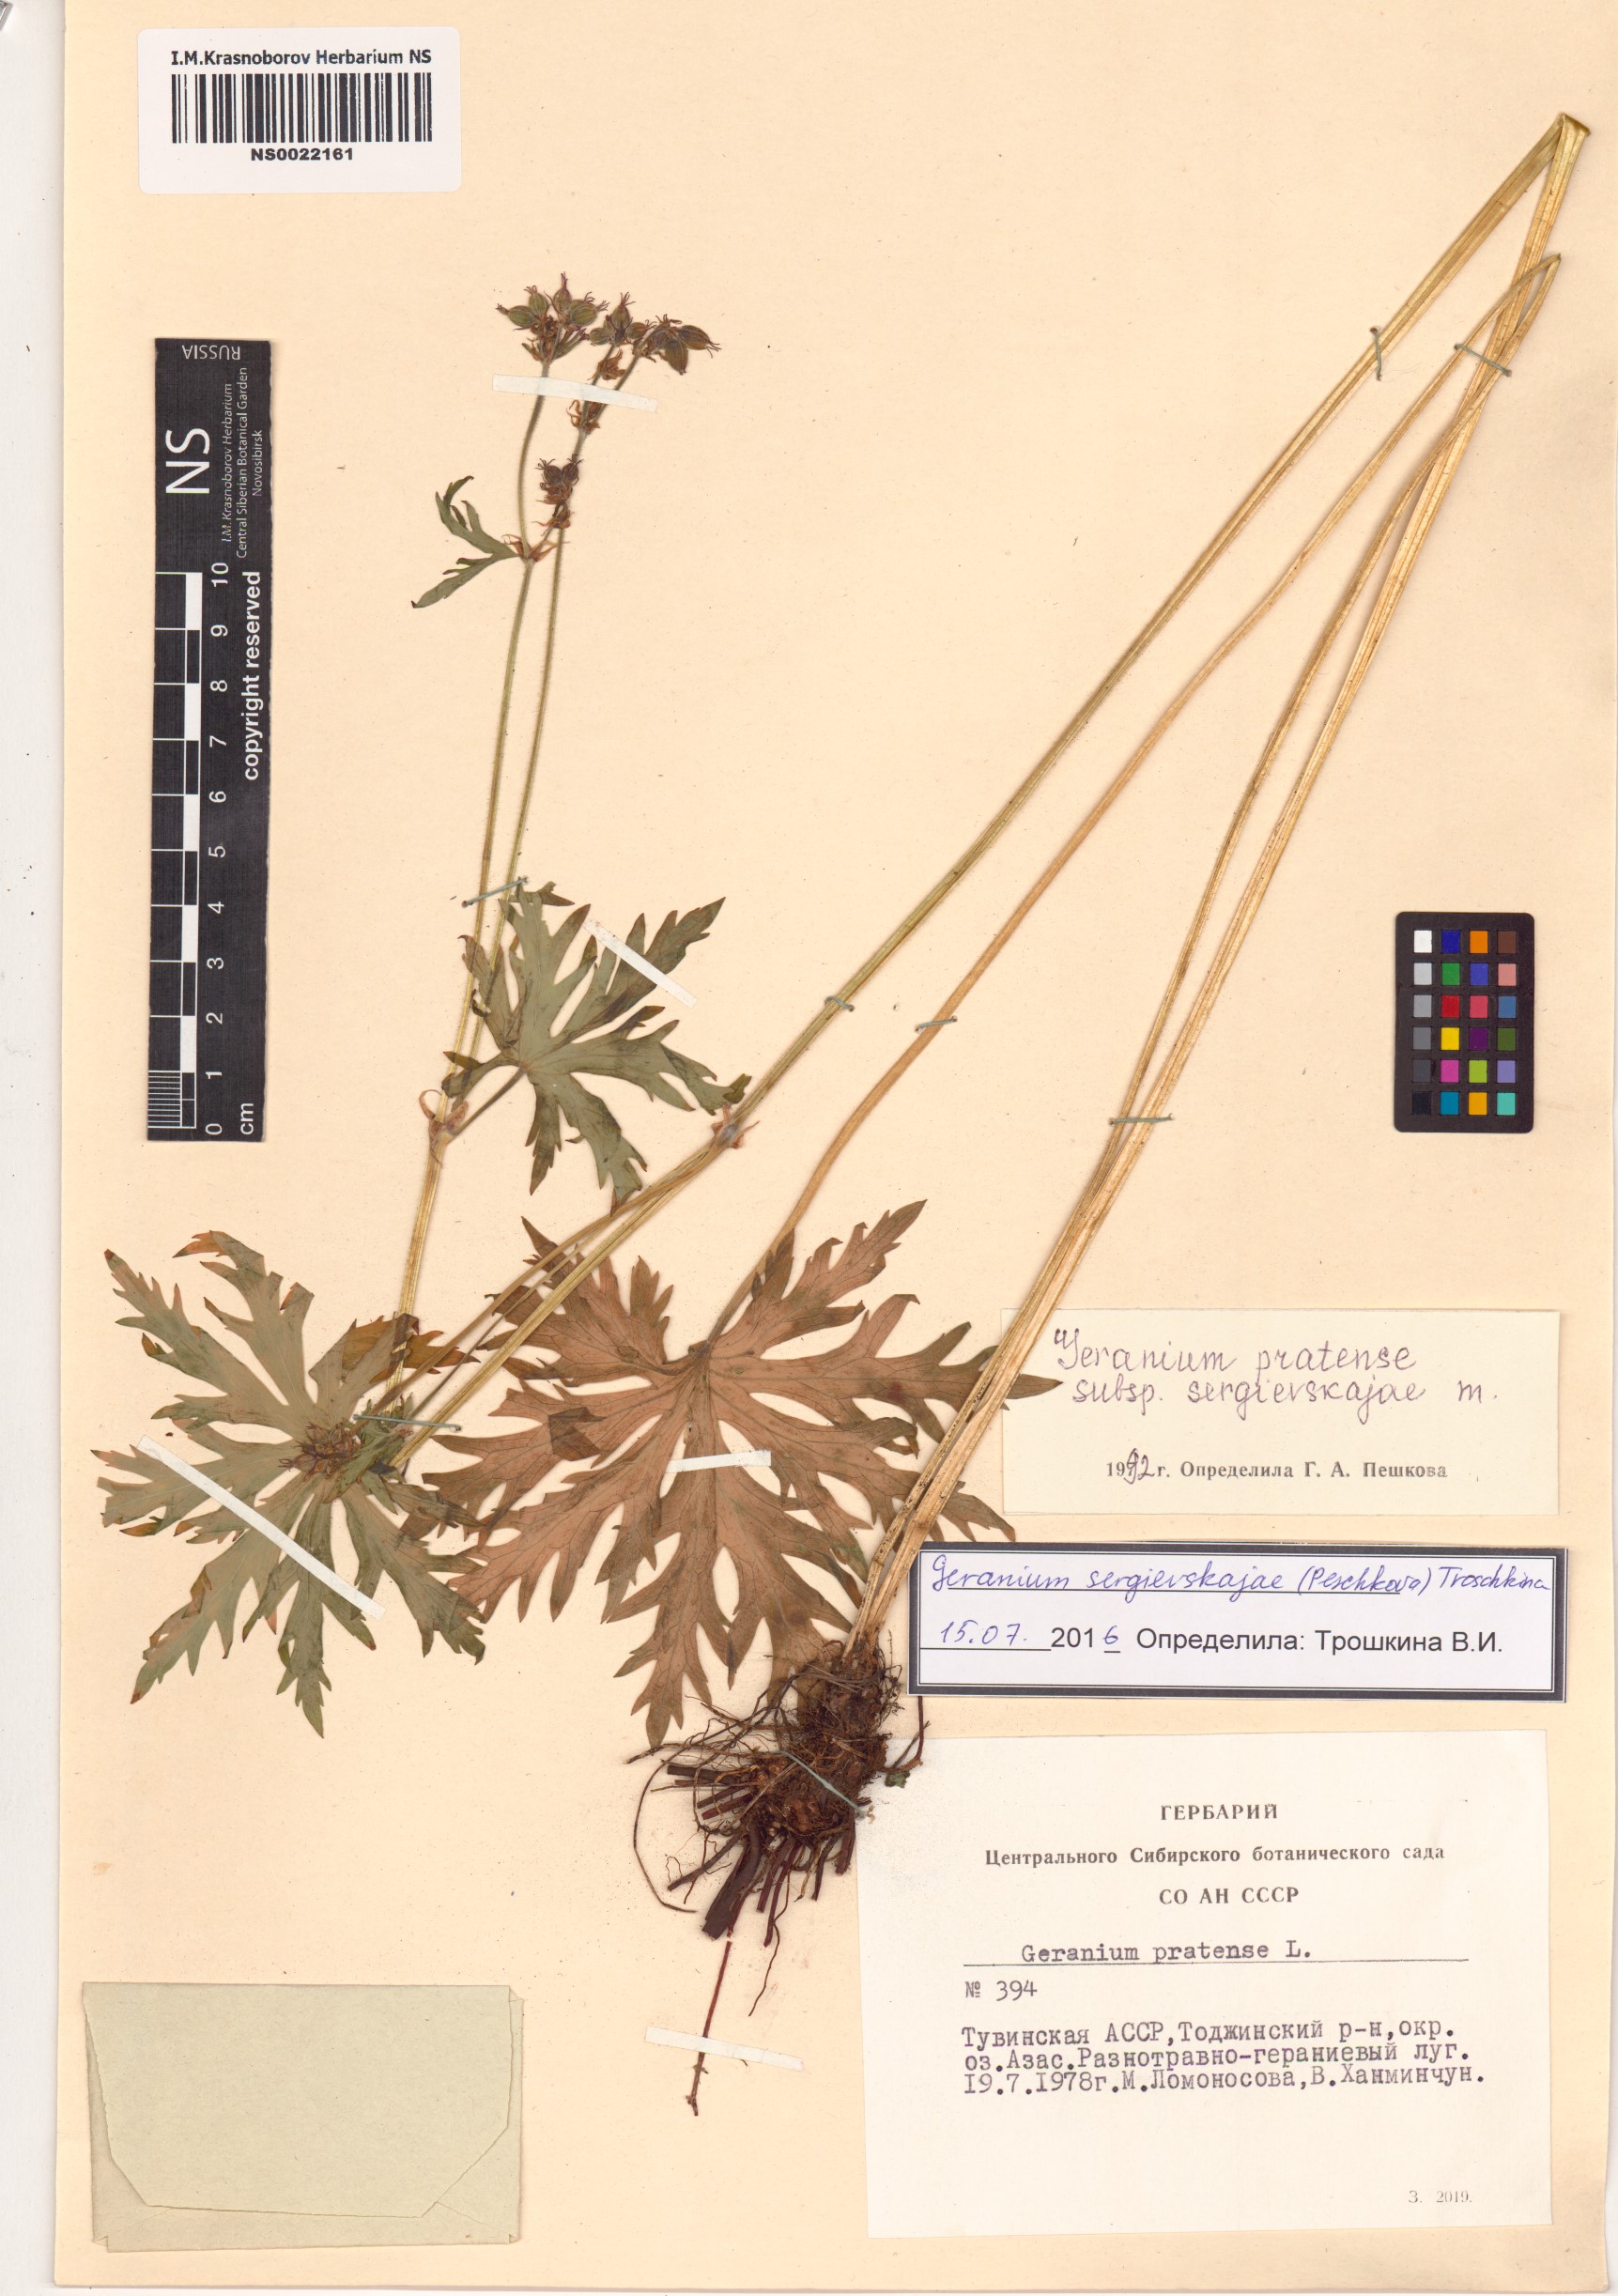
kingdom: Plantae
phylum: Tracheophyta
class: Magnoliopsida
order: Geraniales
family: Geraniaceae
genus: Geranium
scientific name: Geranium pratense
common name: Meadow crane's-bill
